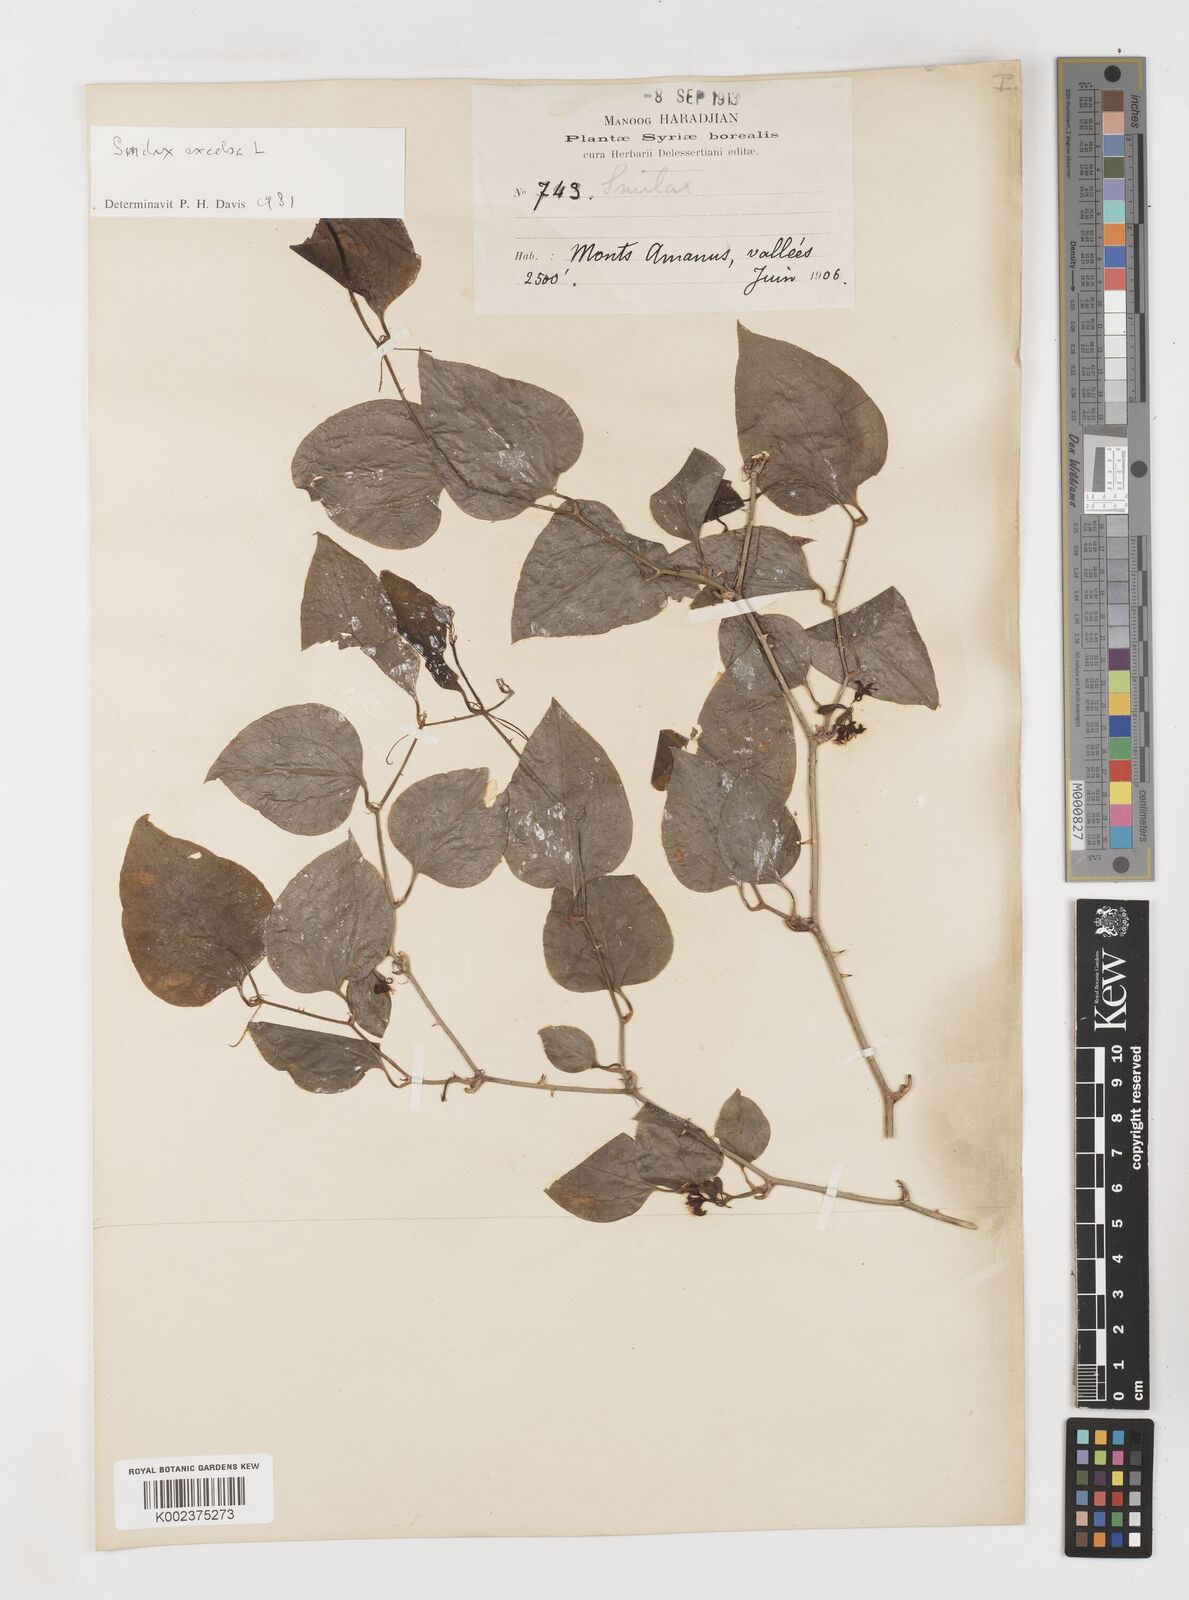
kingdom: Plantae
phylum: Tracheophyta
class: Liliopsida
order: Liliales
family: Smilacaceae
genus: Smilax
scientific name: Smilax excelsa
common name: Larger smilax
